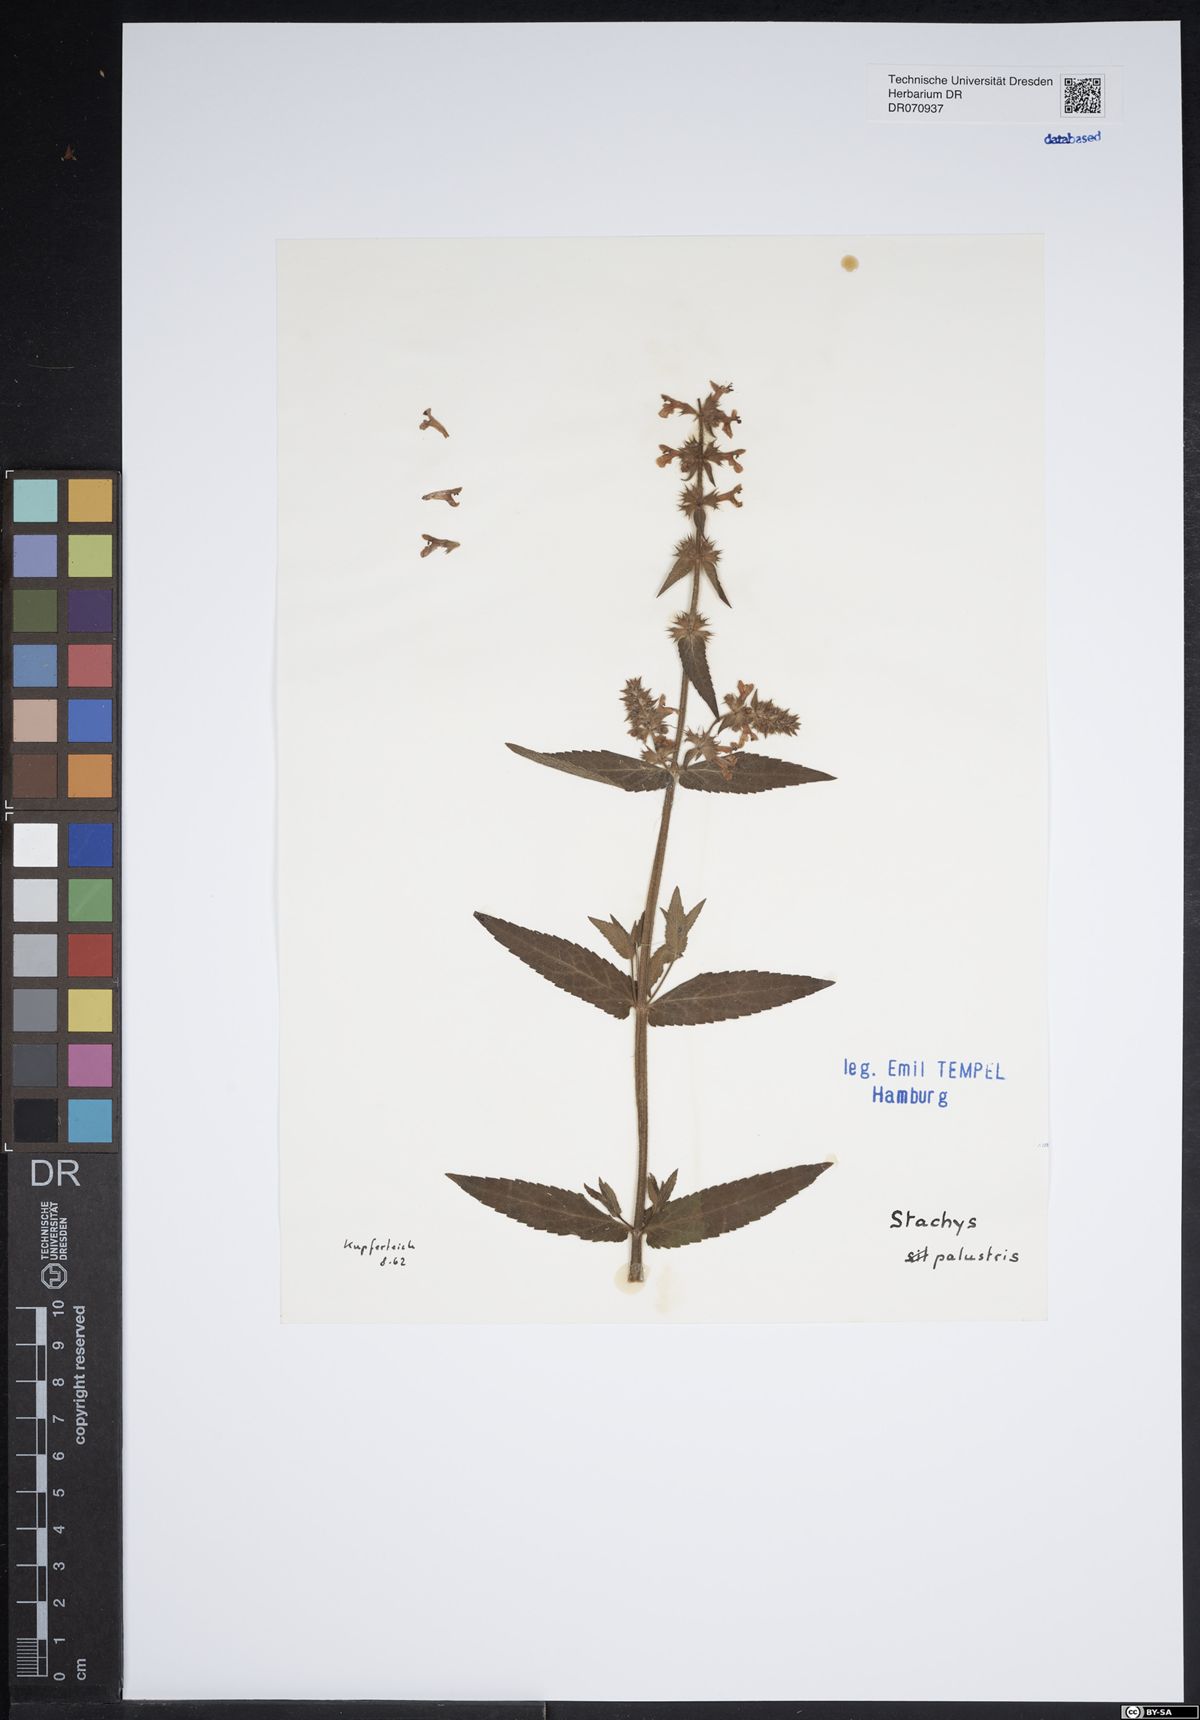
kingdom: Plantae
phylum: Tracheophyta
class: Magnoliopsida
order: Lamiales
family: Lamiaceae
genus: Stachys
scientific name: Stachys palustris
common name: Marsh woundwort
